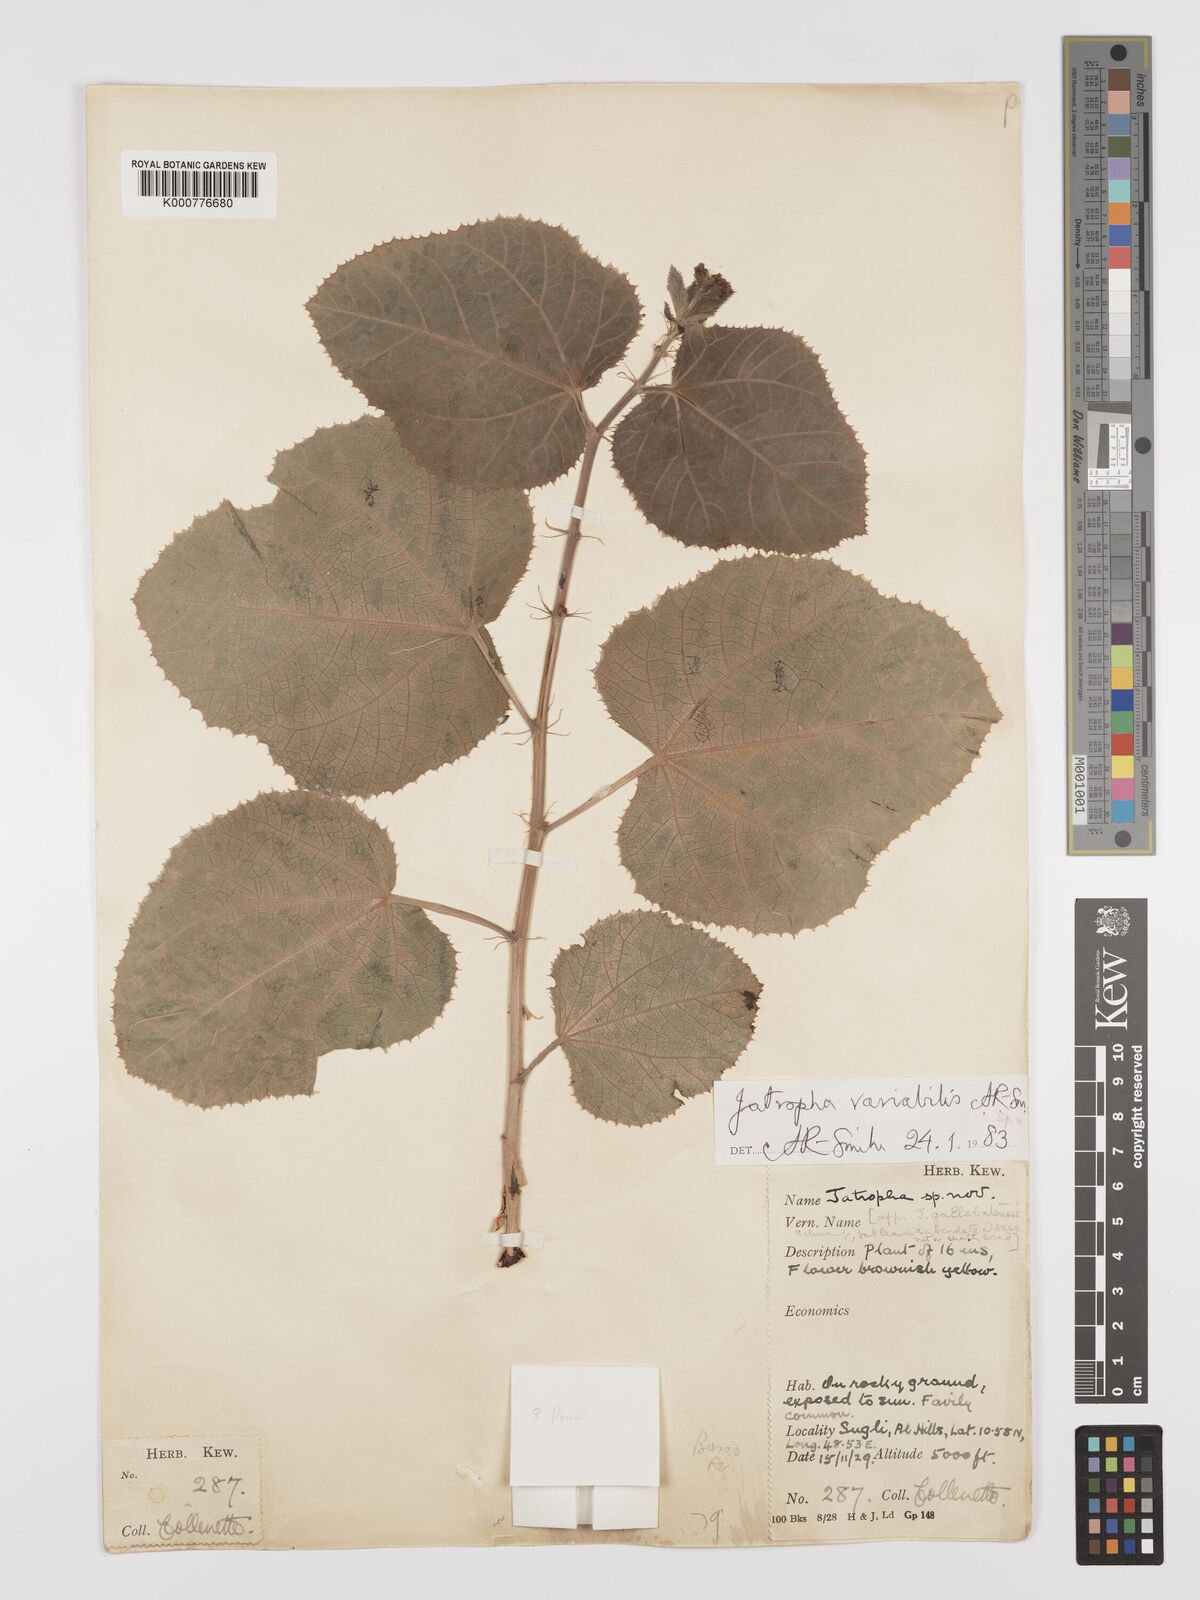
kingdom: Plantae
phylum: Tracheophyta
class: Magnoliopsida
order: Malpighiales
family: Euphorbiaceae
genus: Jatropha
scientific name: Jatropha variabilis
